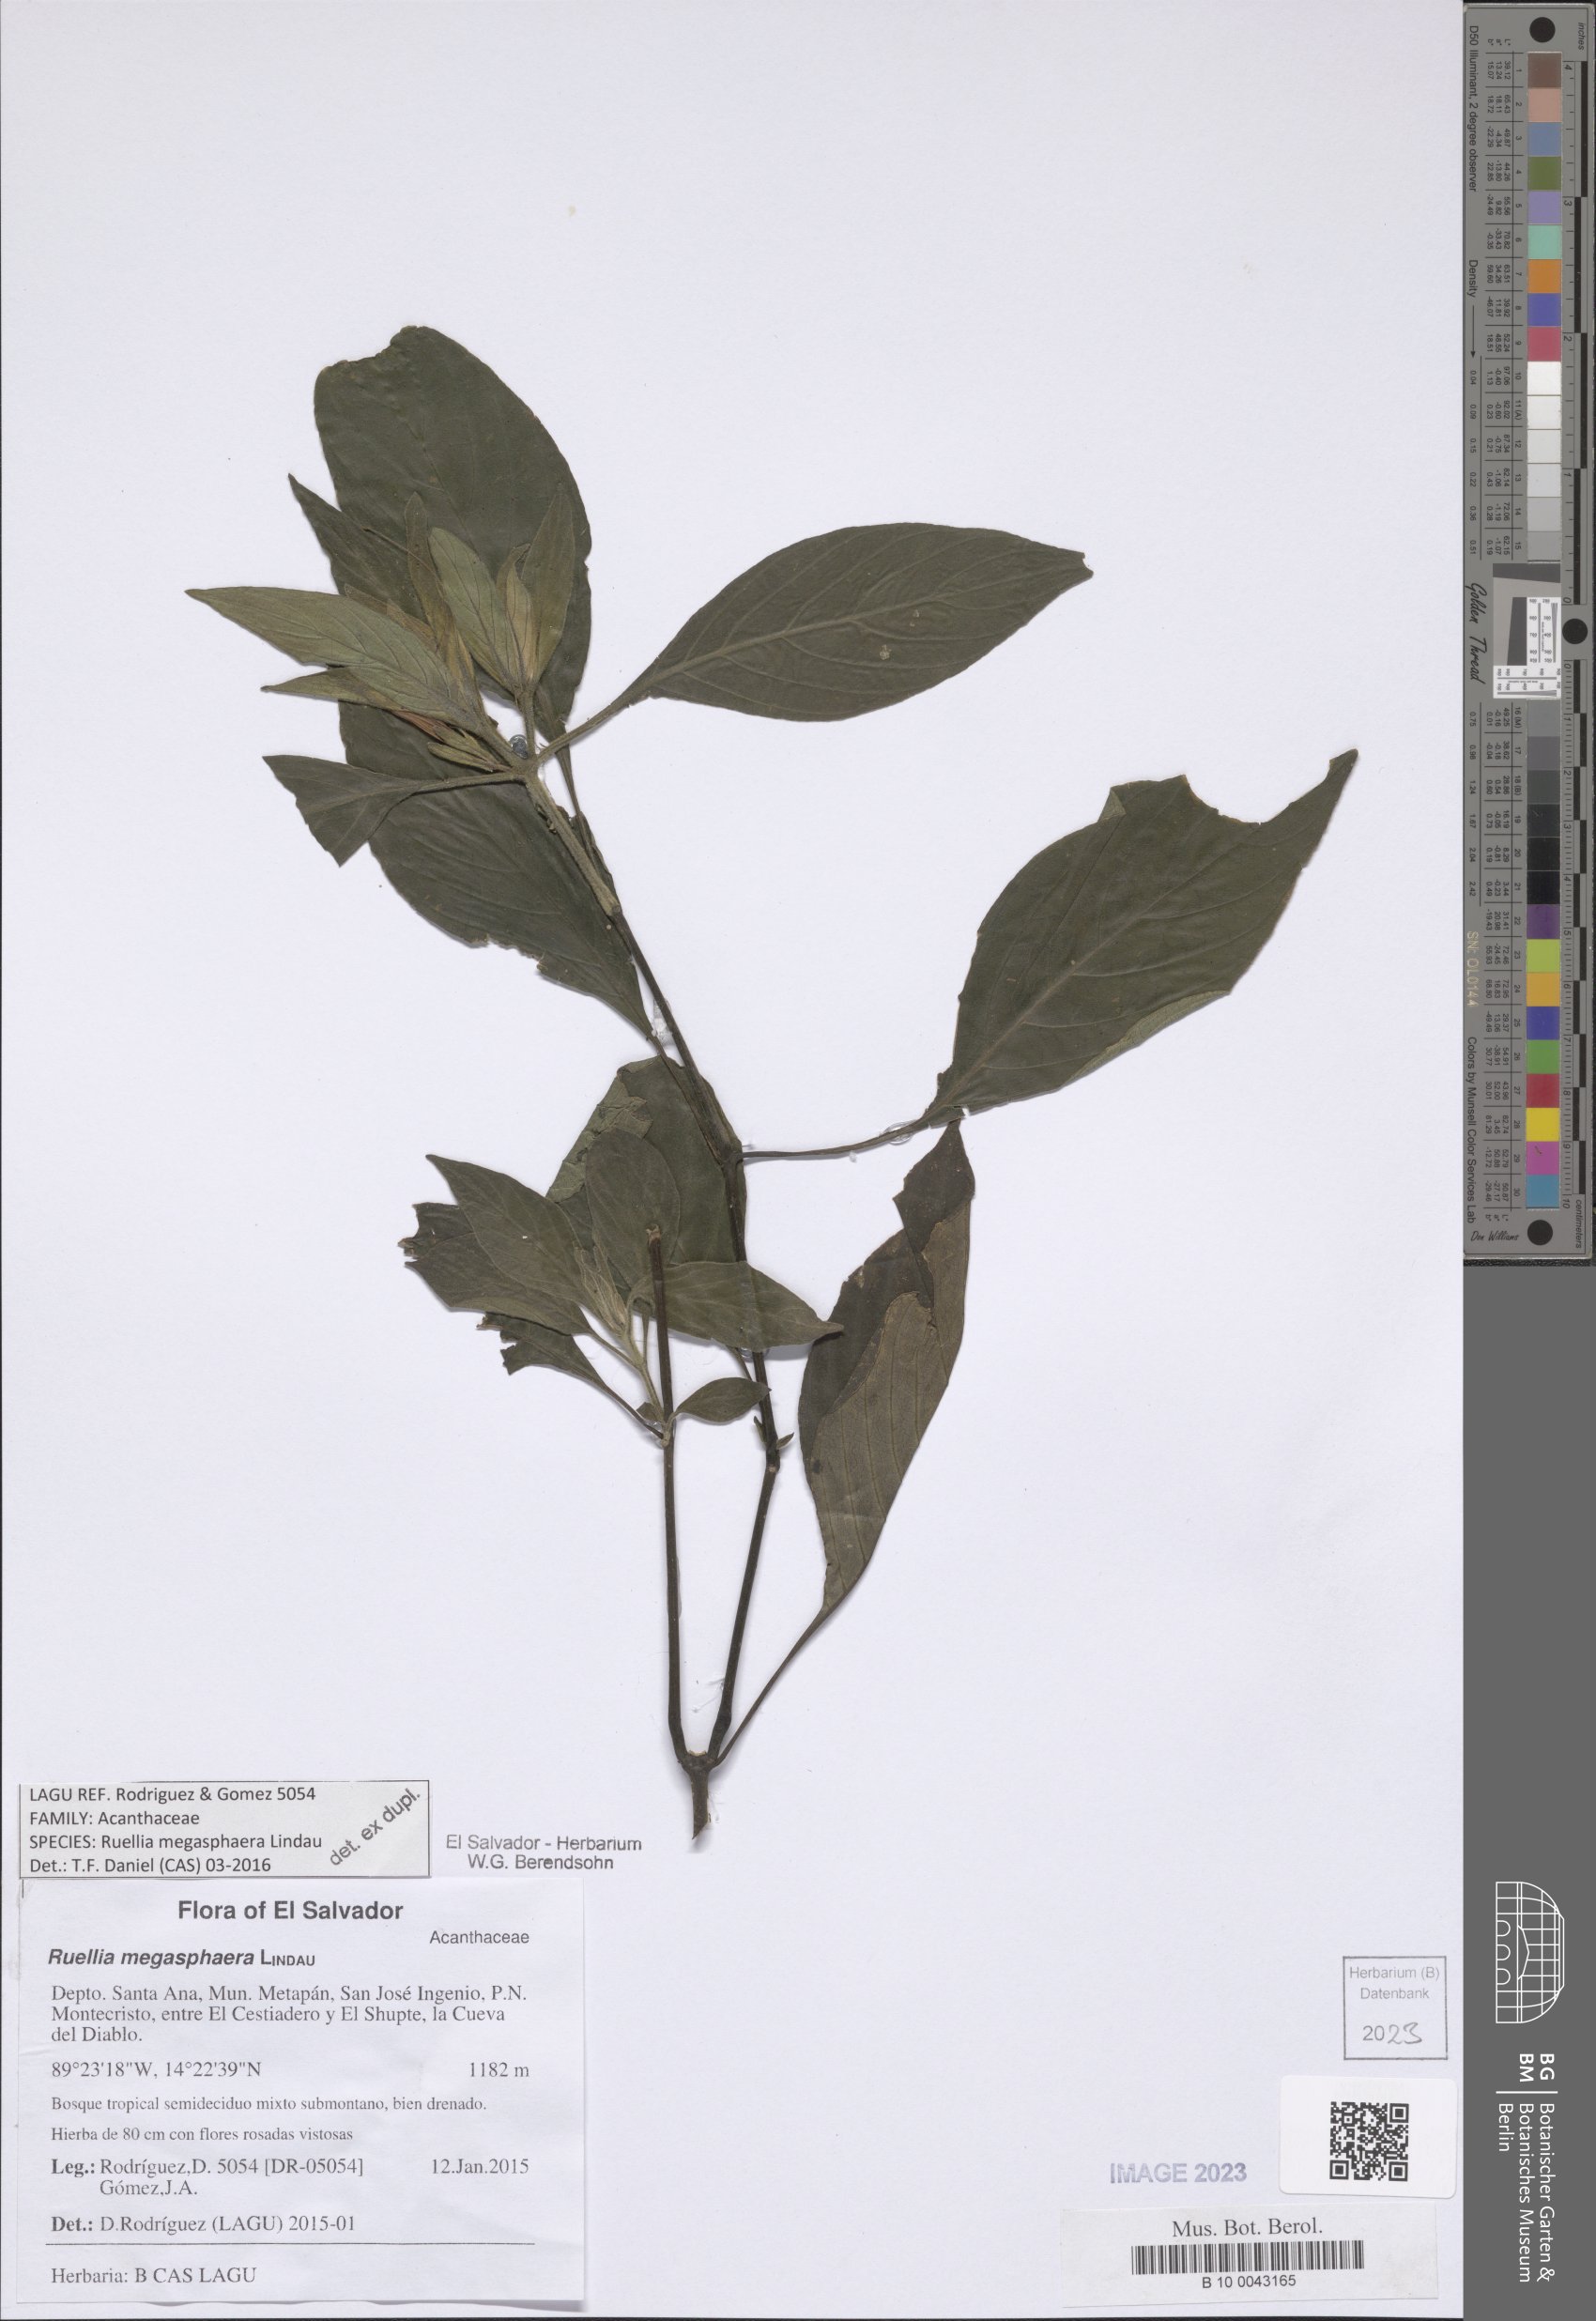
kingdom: Plantae
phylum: Tracheophyta
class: Magnoliopsida
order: Lamiales
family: Acanthaceae
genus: Ruellia
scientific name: Ruellia megasphaera
